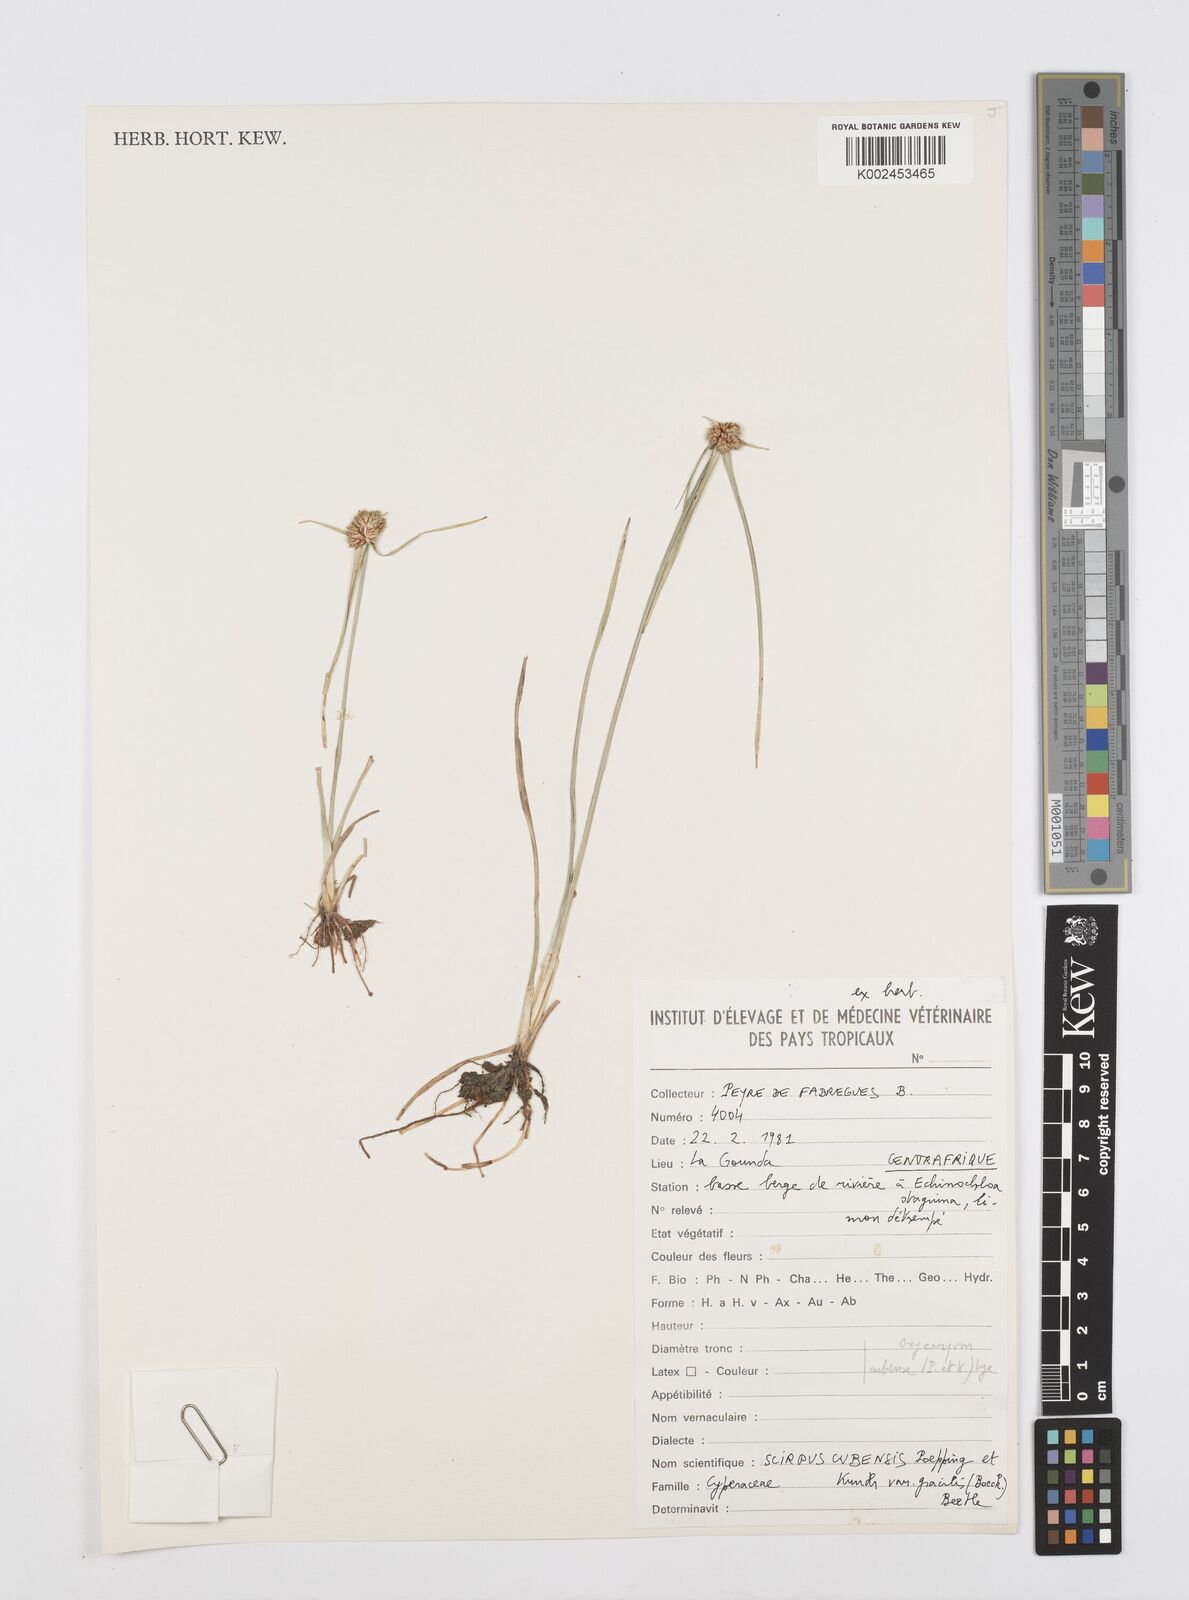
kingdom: Plantae
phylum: Tracheophyta
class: Liliopsida
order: Poales
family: Cyperaceae
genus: Cyperus
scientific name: Cyperus elegans
